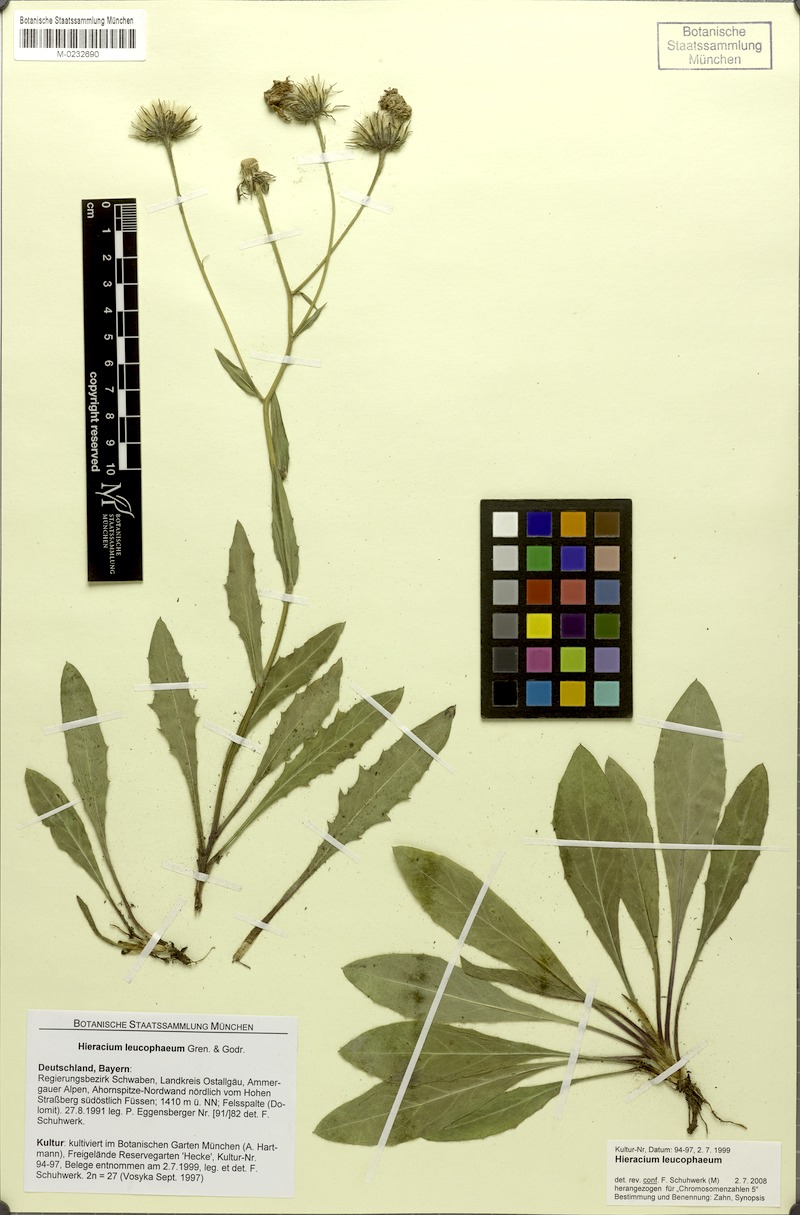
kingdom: Plantae
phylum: Tracheophyta
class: Magnoliopsida
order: Asterales
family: Asteraceae
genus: Hieracium
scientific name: Hieracium leucophaeum
